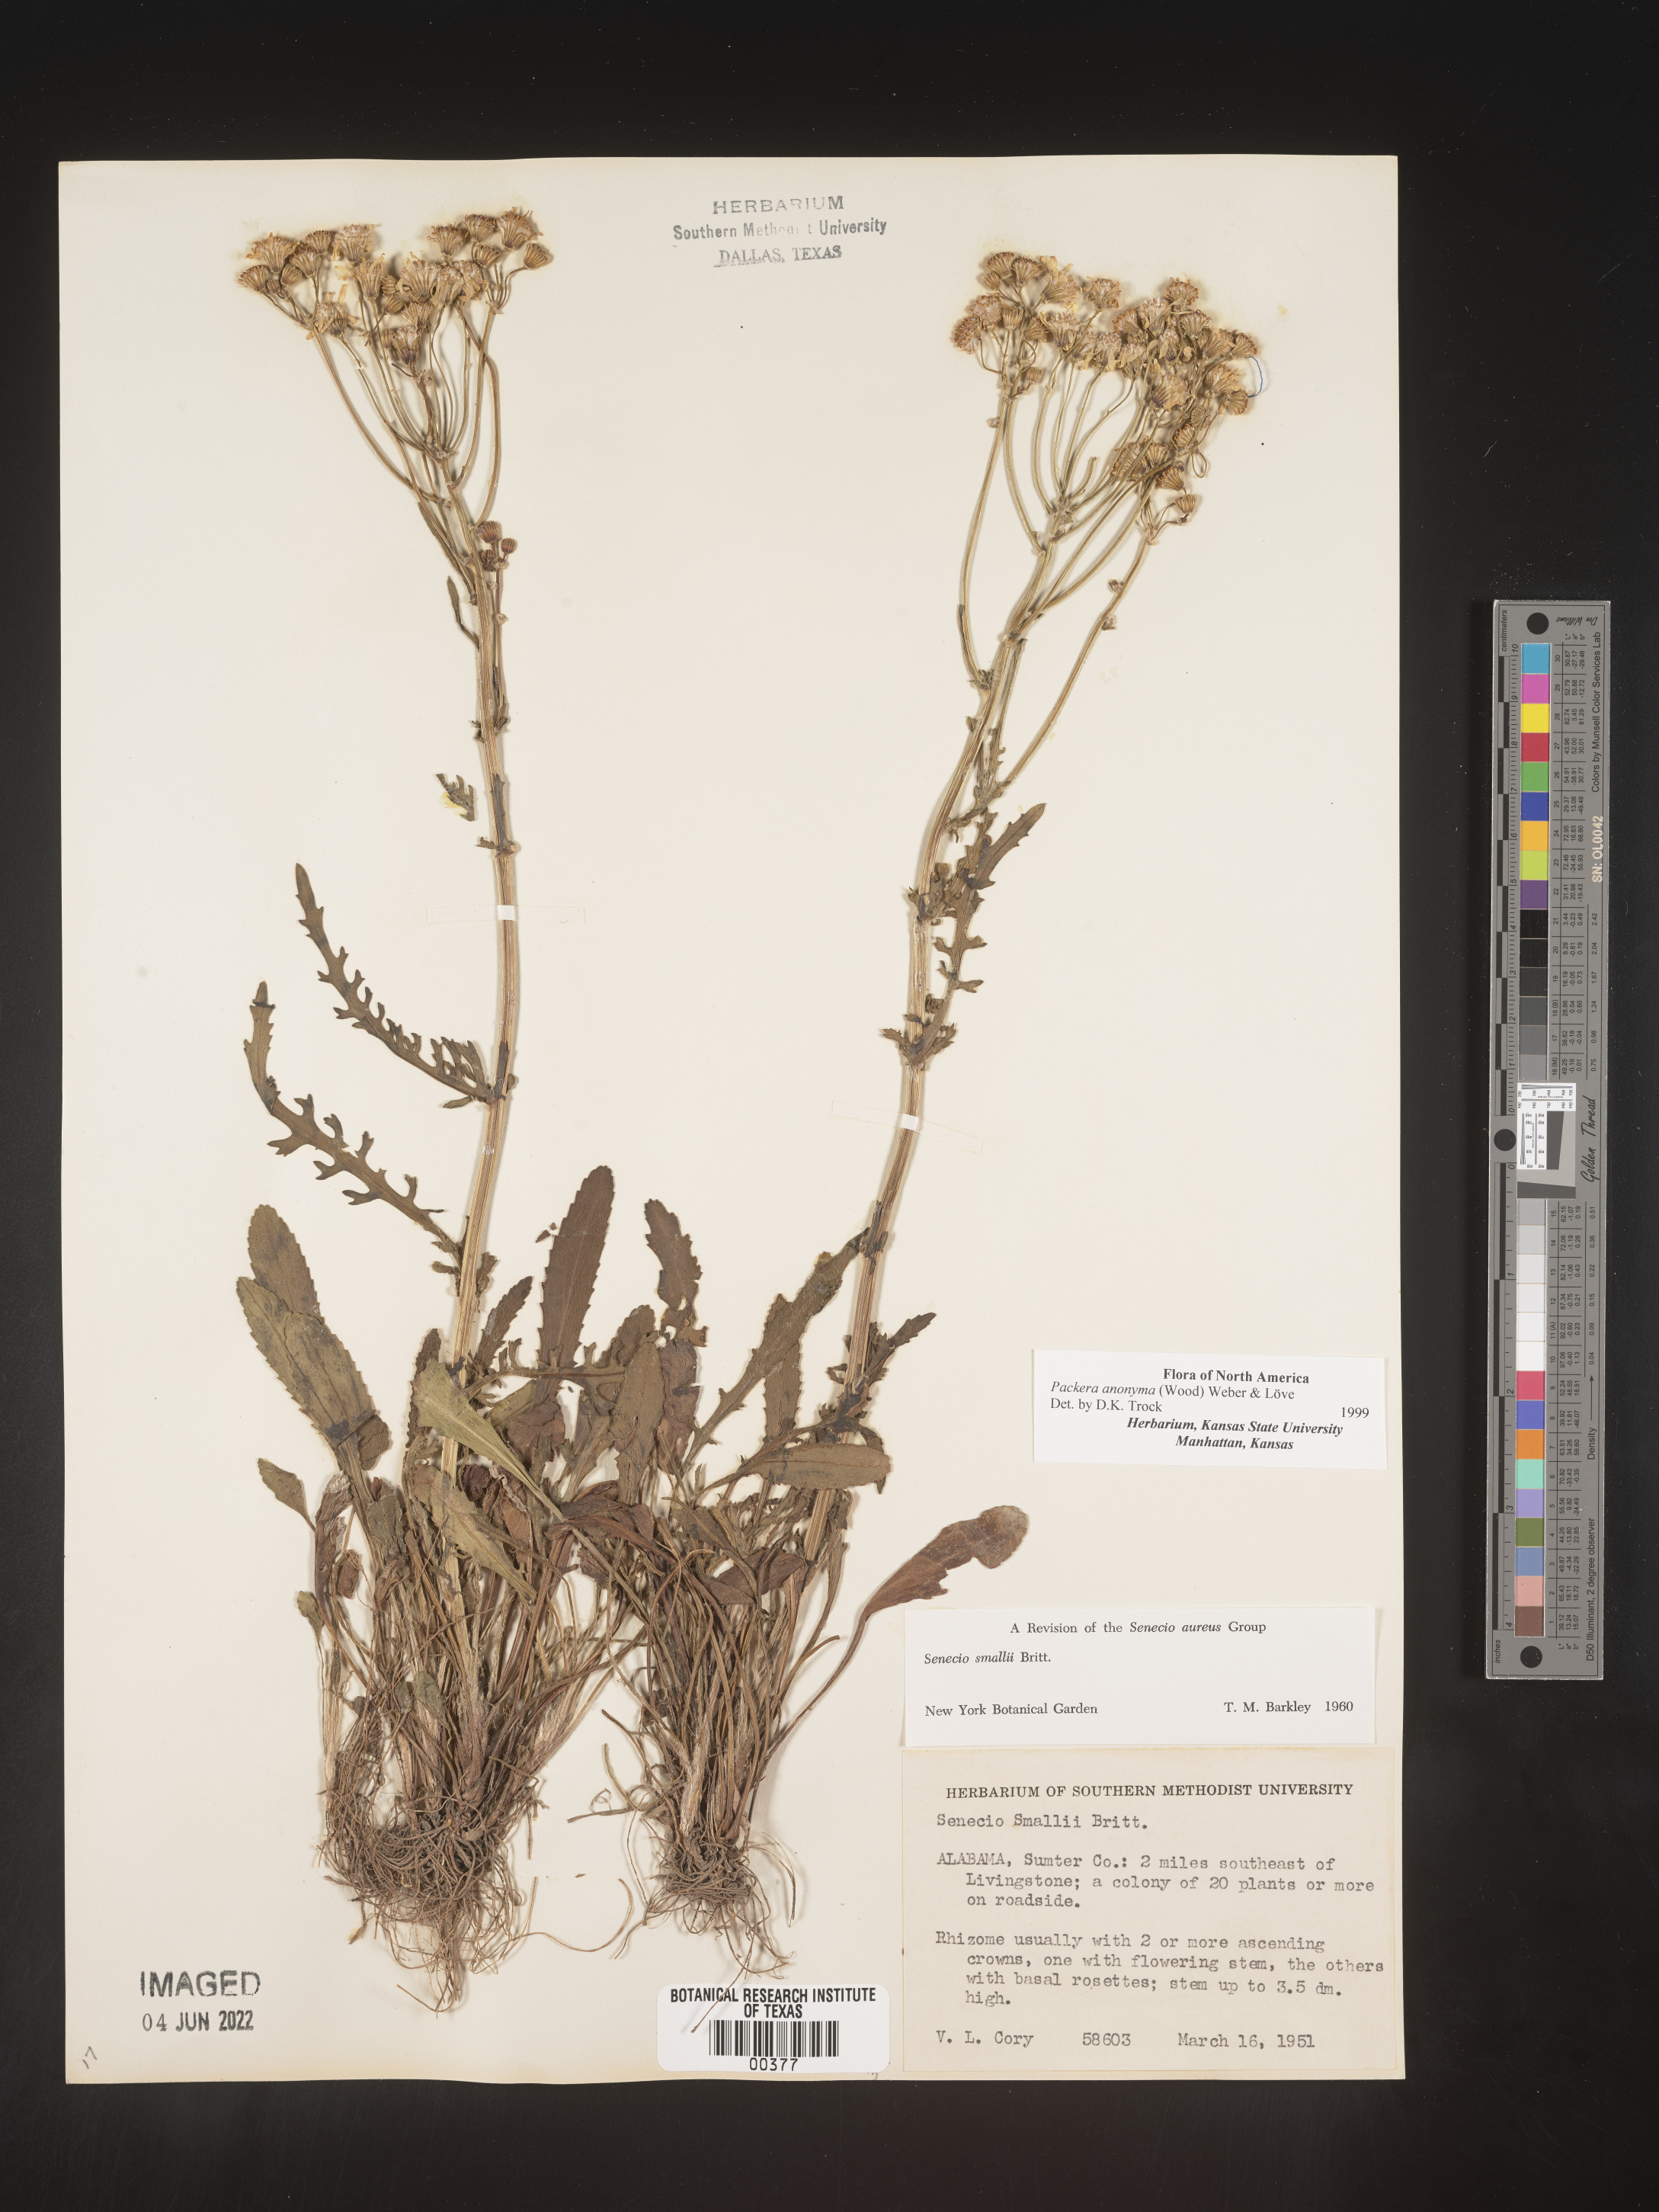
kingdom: Plantae
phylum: Tracheophyta
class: Magnoliopsida
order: Asterales
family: Asteraceae
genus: Packera
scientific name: Packera anonyma
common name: Small ragwort
